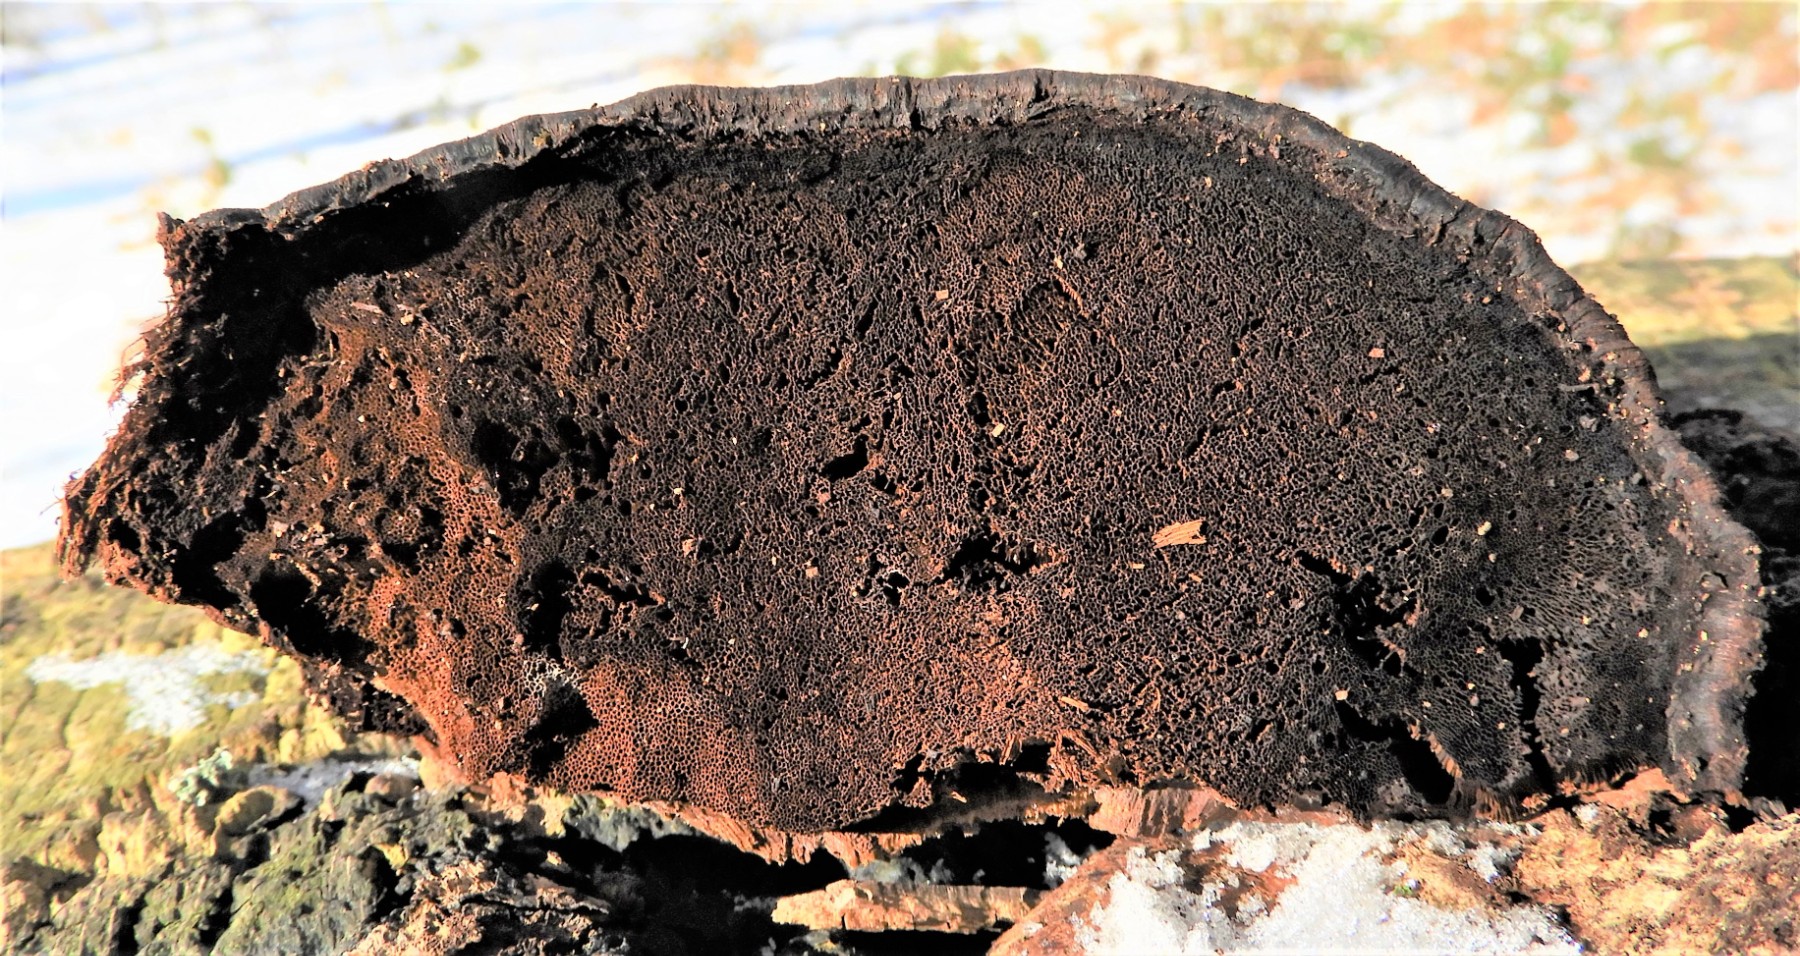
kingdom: Fungi
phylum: Basidiomycota
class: Agaricomycetes
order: Hymenochaetales
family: Hymenochaetaceae
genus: Inonotus
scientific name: Inonotus cuticularis
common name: kroghåret spejlporesvamp
